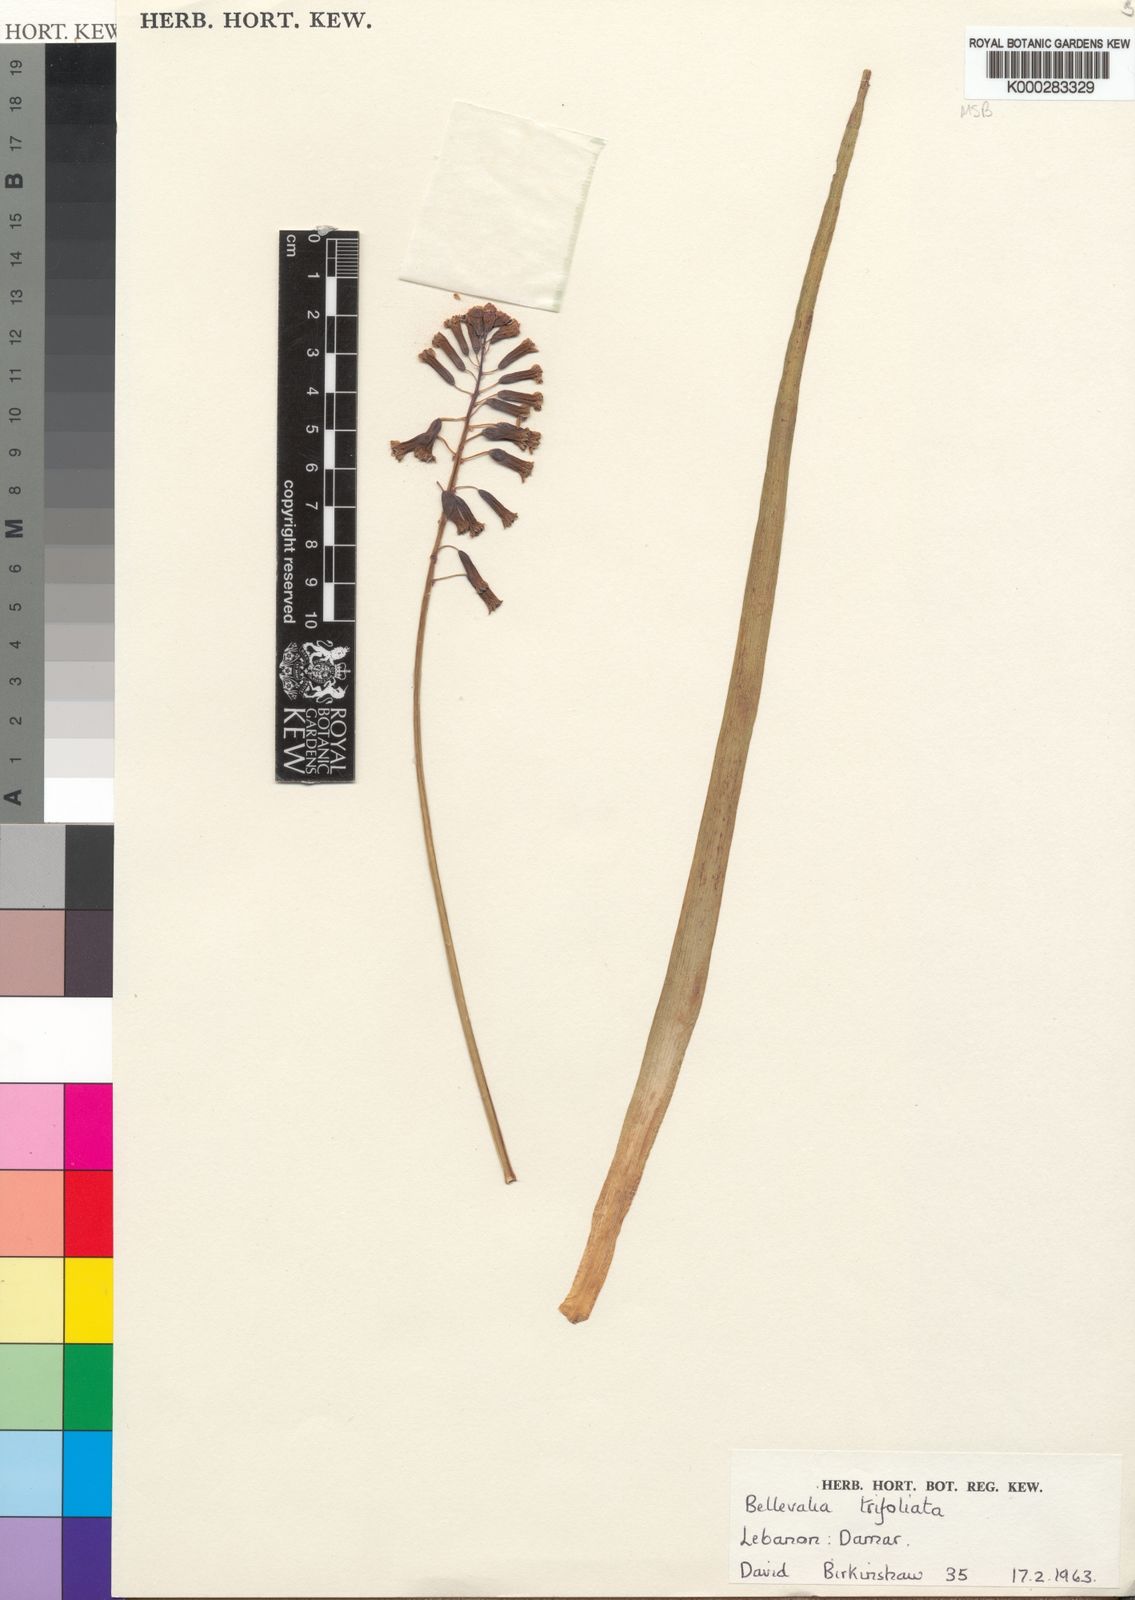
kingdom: Plantae
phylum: Tracheophyta
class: Liliopsida
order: Asparagales
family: Asparagaceae
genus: Bellevalia
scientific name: Bellevalia trifoliata
